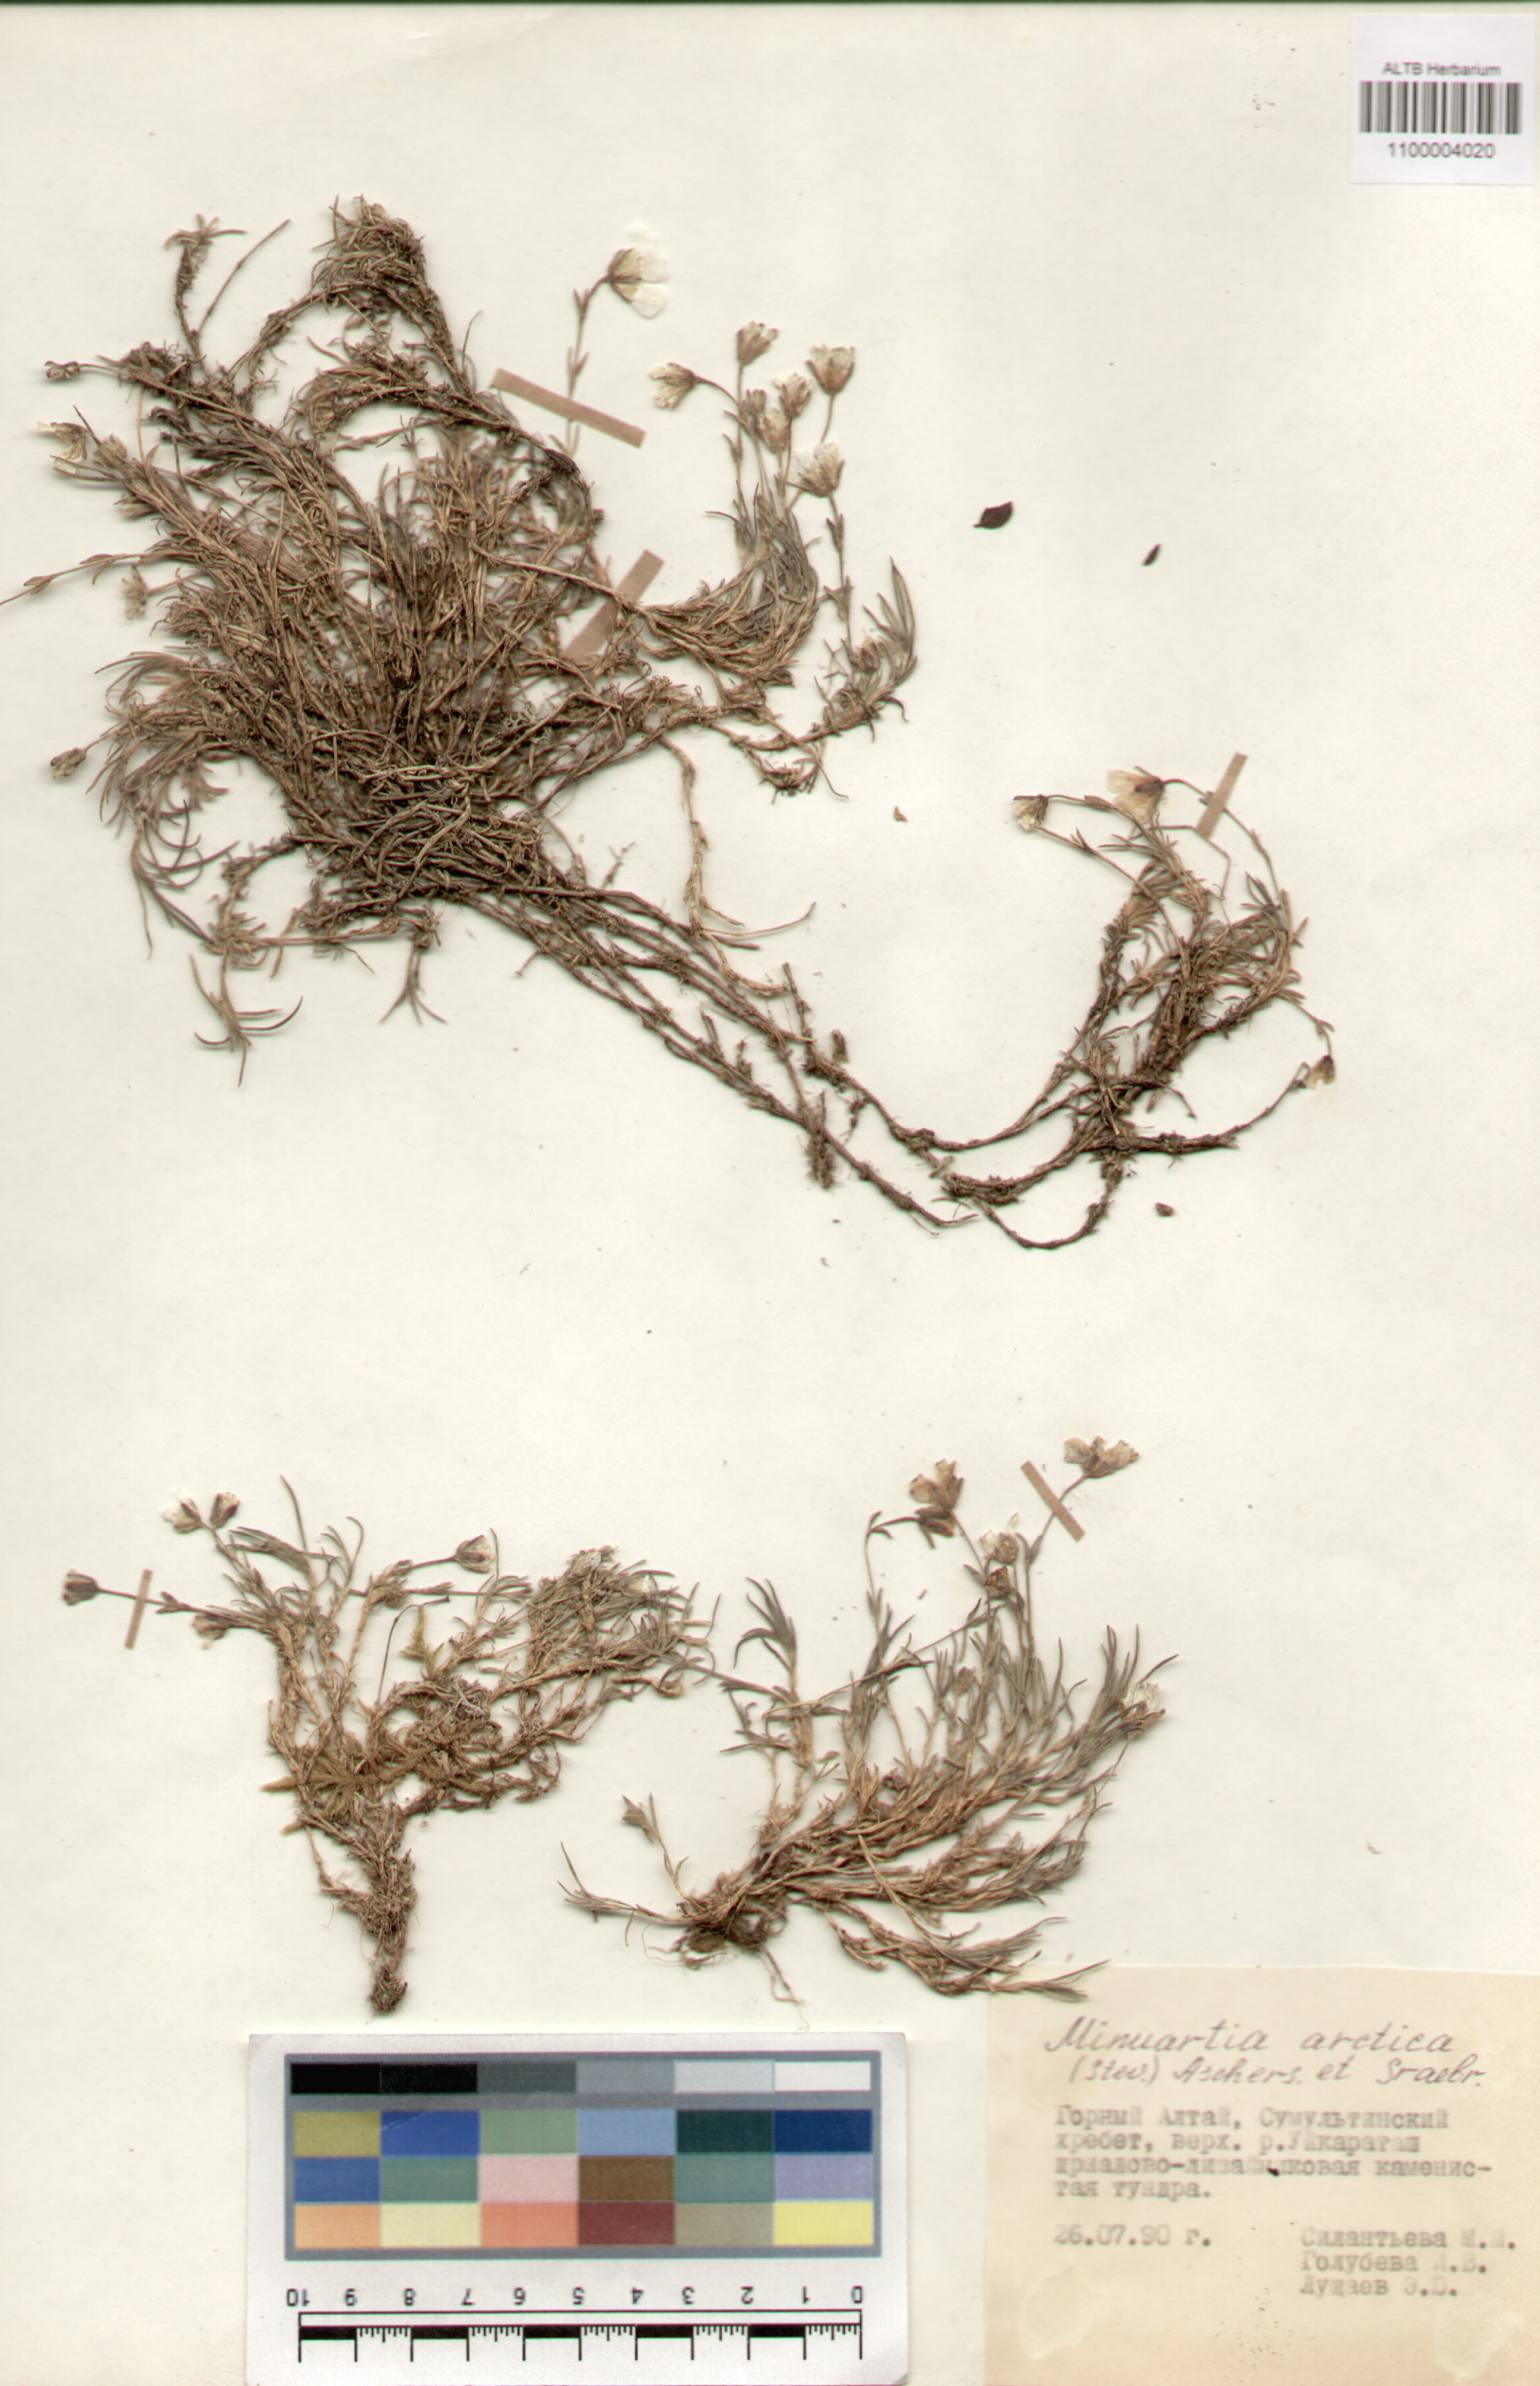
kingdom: Plantae
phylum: Tracheophyta
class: Magnoliopsida
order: Caryophyllales
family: Caryophyllaceae
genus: Cherleria
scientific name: Cherleria arctica
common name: Arctic sandwort
